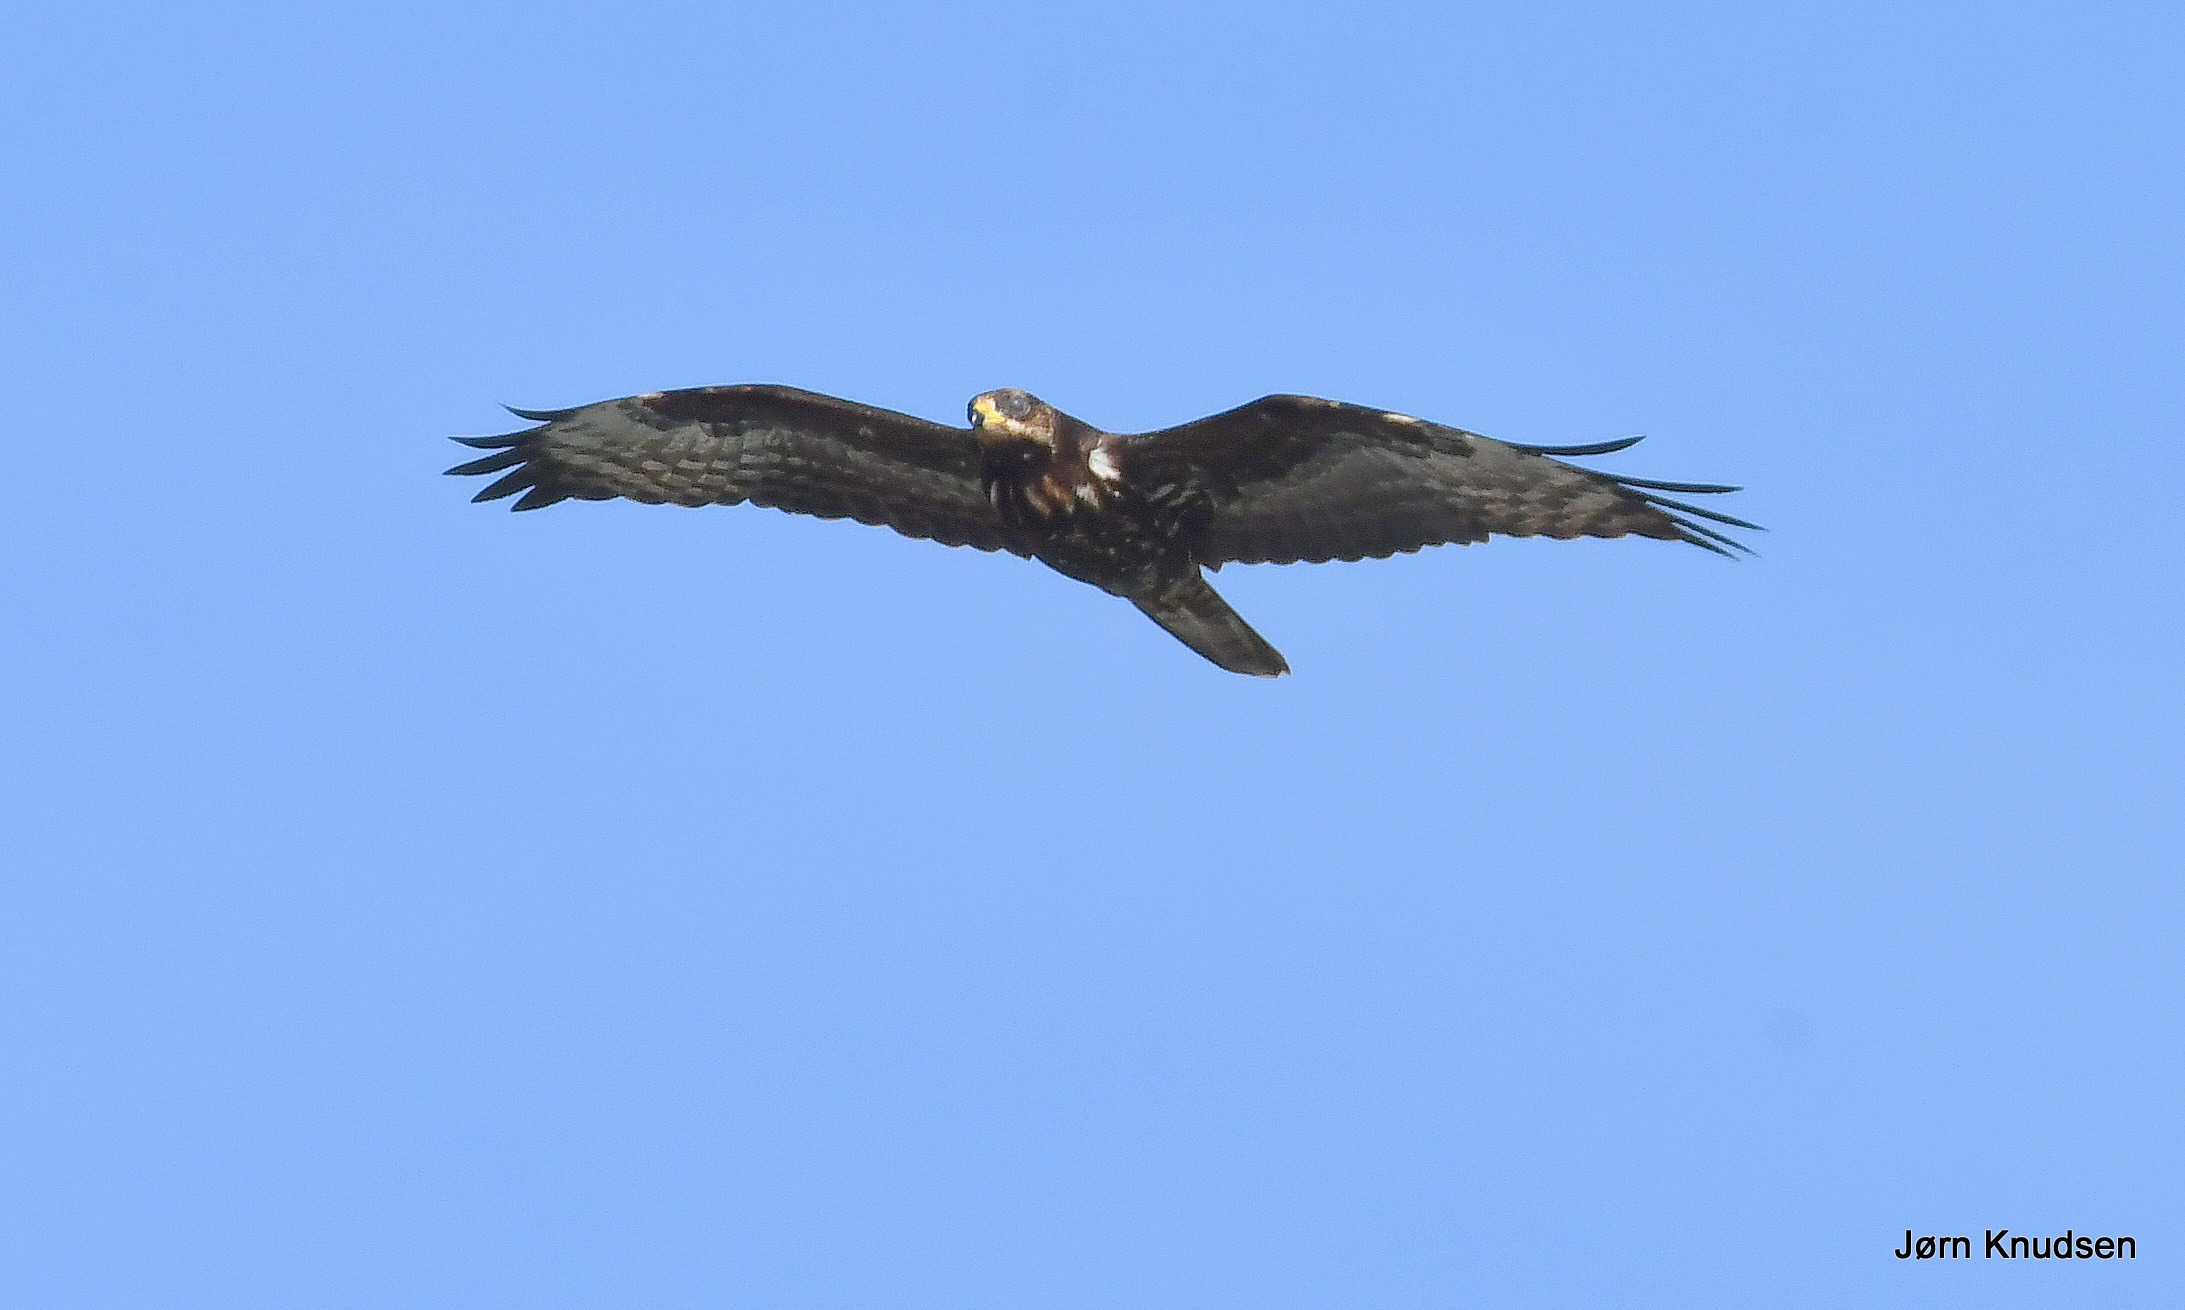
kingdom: Animalia
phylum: Chordata
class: Aves
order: Accipitriformes
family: Accipitridae
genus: Pernis
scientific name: Pernis apivorus
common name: Hvepsevåge
